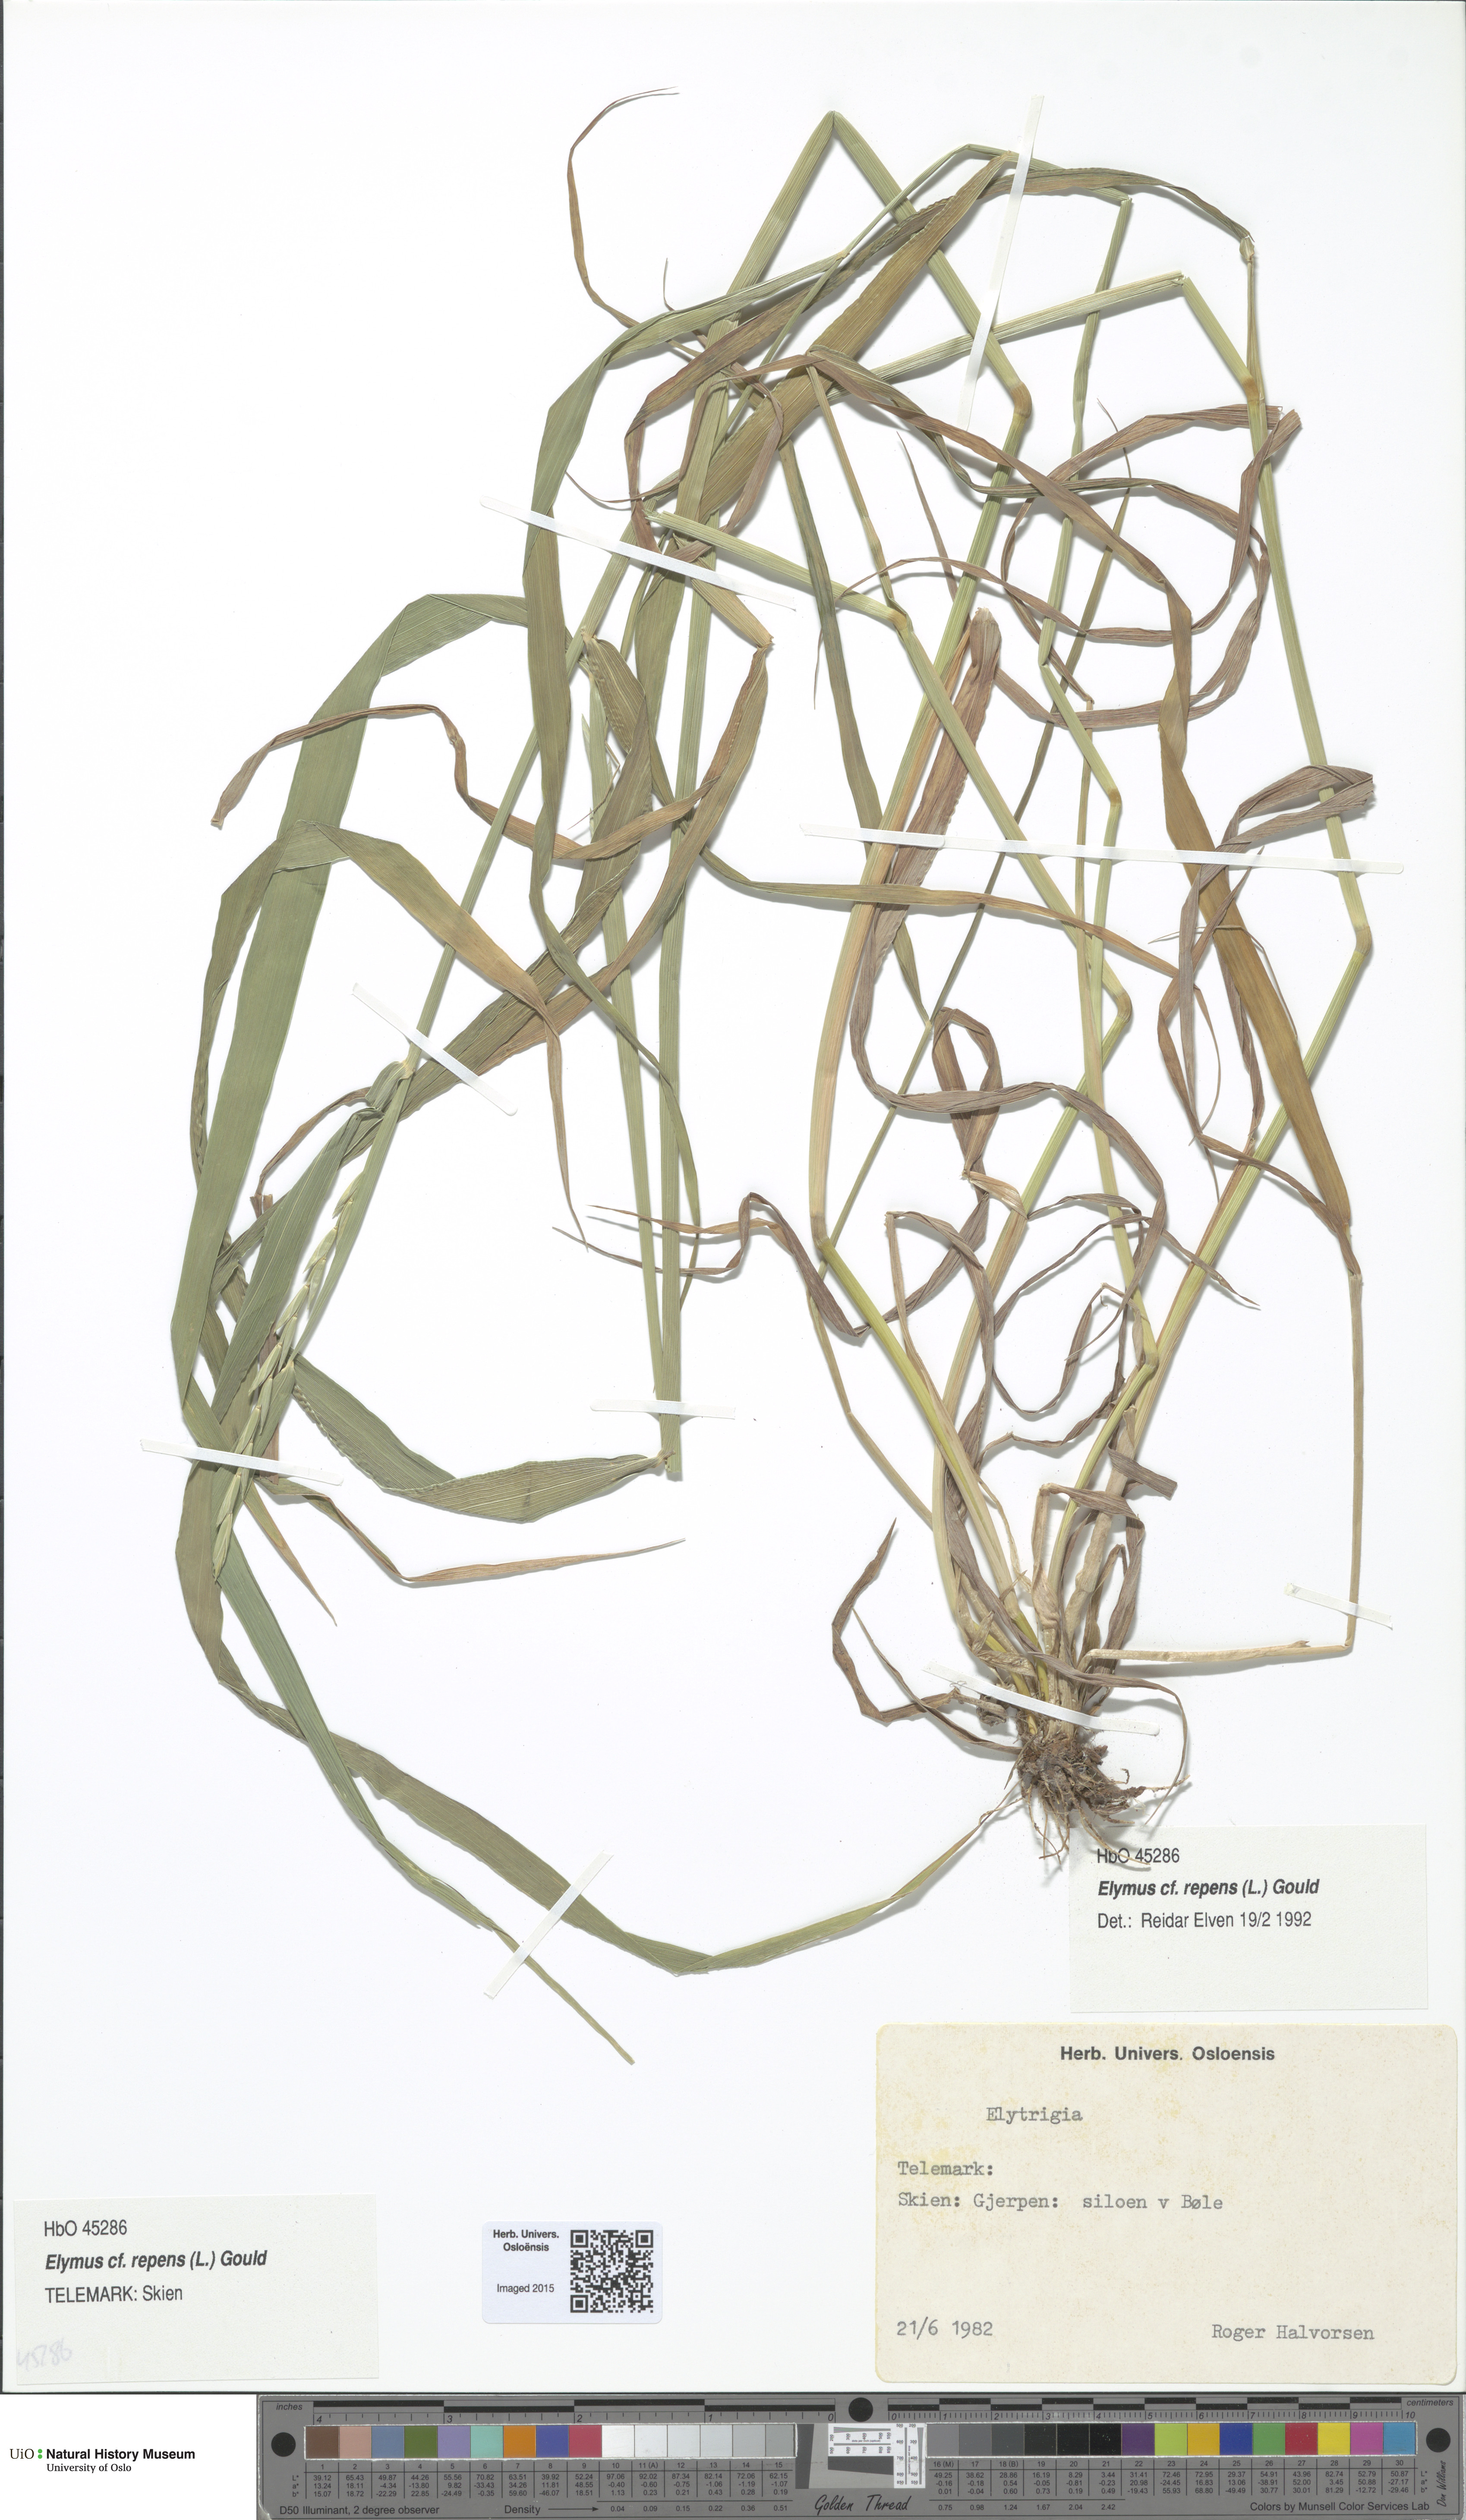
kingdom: Plantae
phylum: Tracheophyta
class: Liliopsida
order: Poales
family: Poaceae
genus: Elymus
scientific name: Elymus repens
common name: Quackgrass
